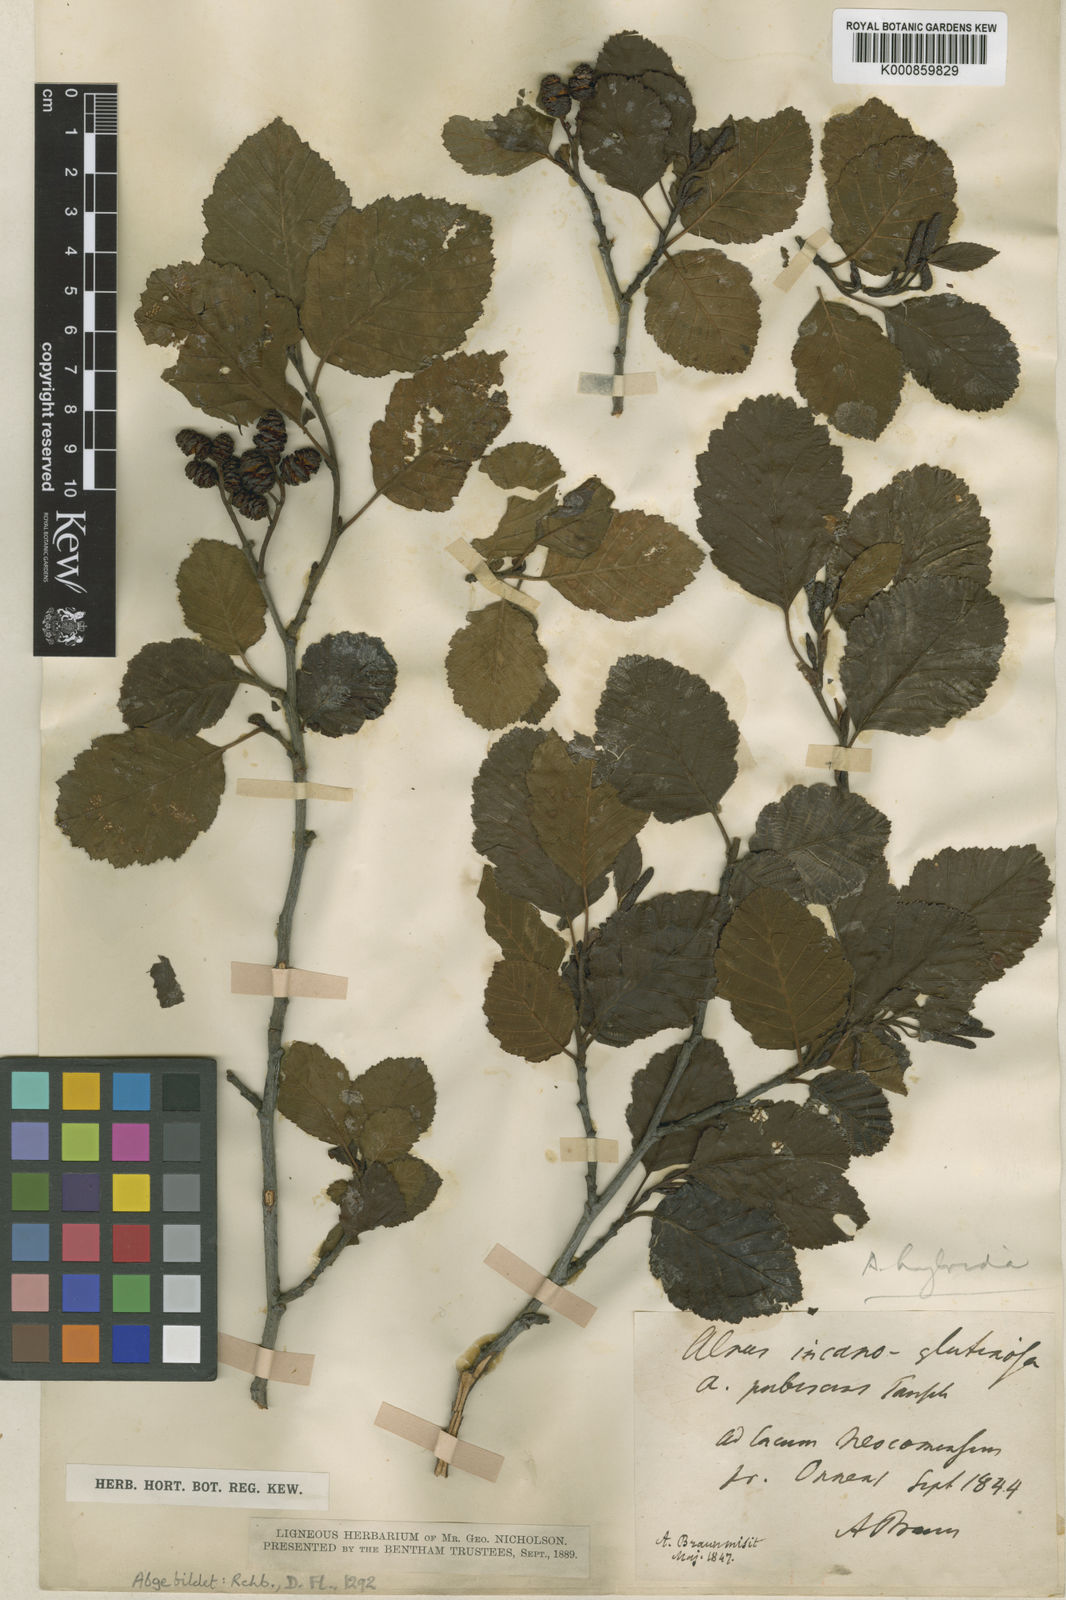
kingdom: Plantae
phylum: Tracheophyta
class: Magnoliopsida
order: Fagales
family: Betulaceae
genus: Alnus
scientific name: Alnus glutinosa
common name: Black alder
